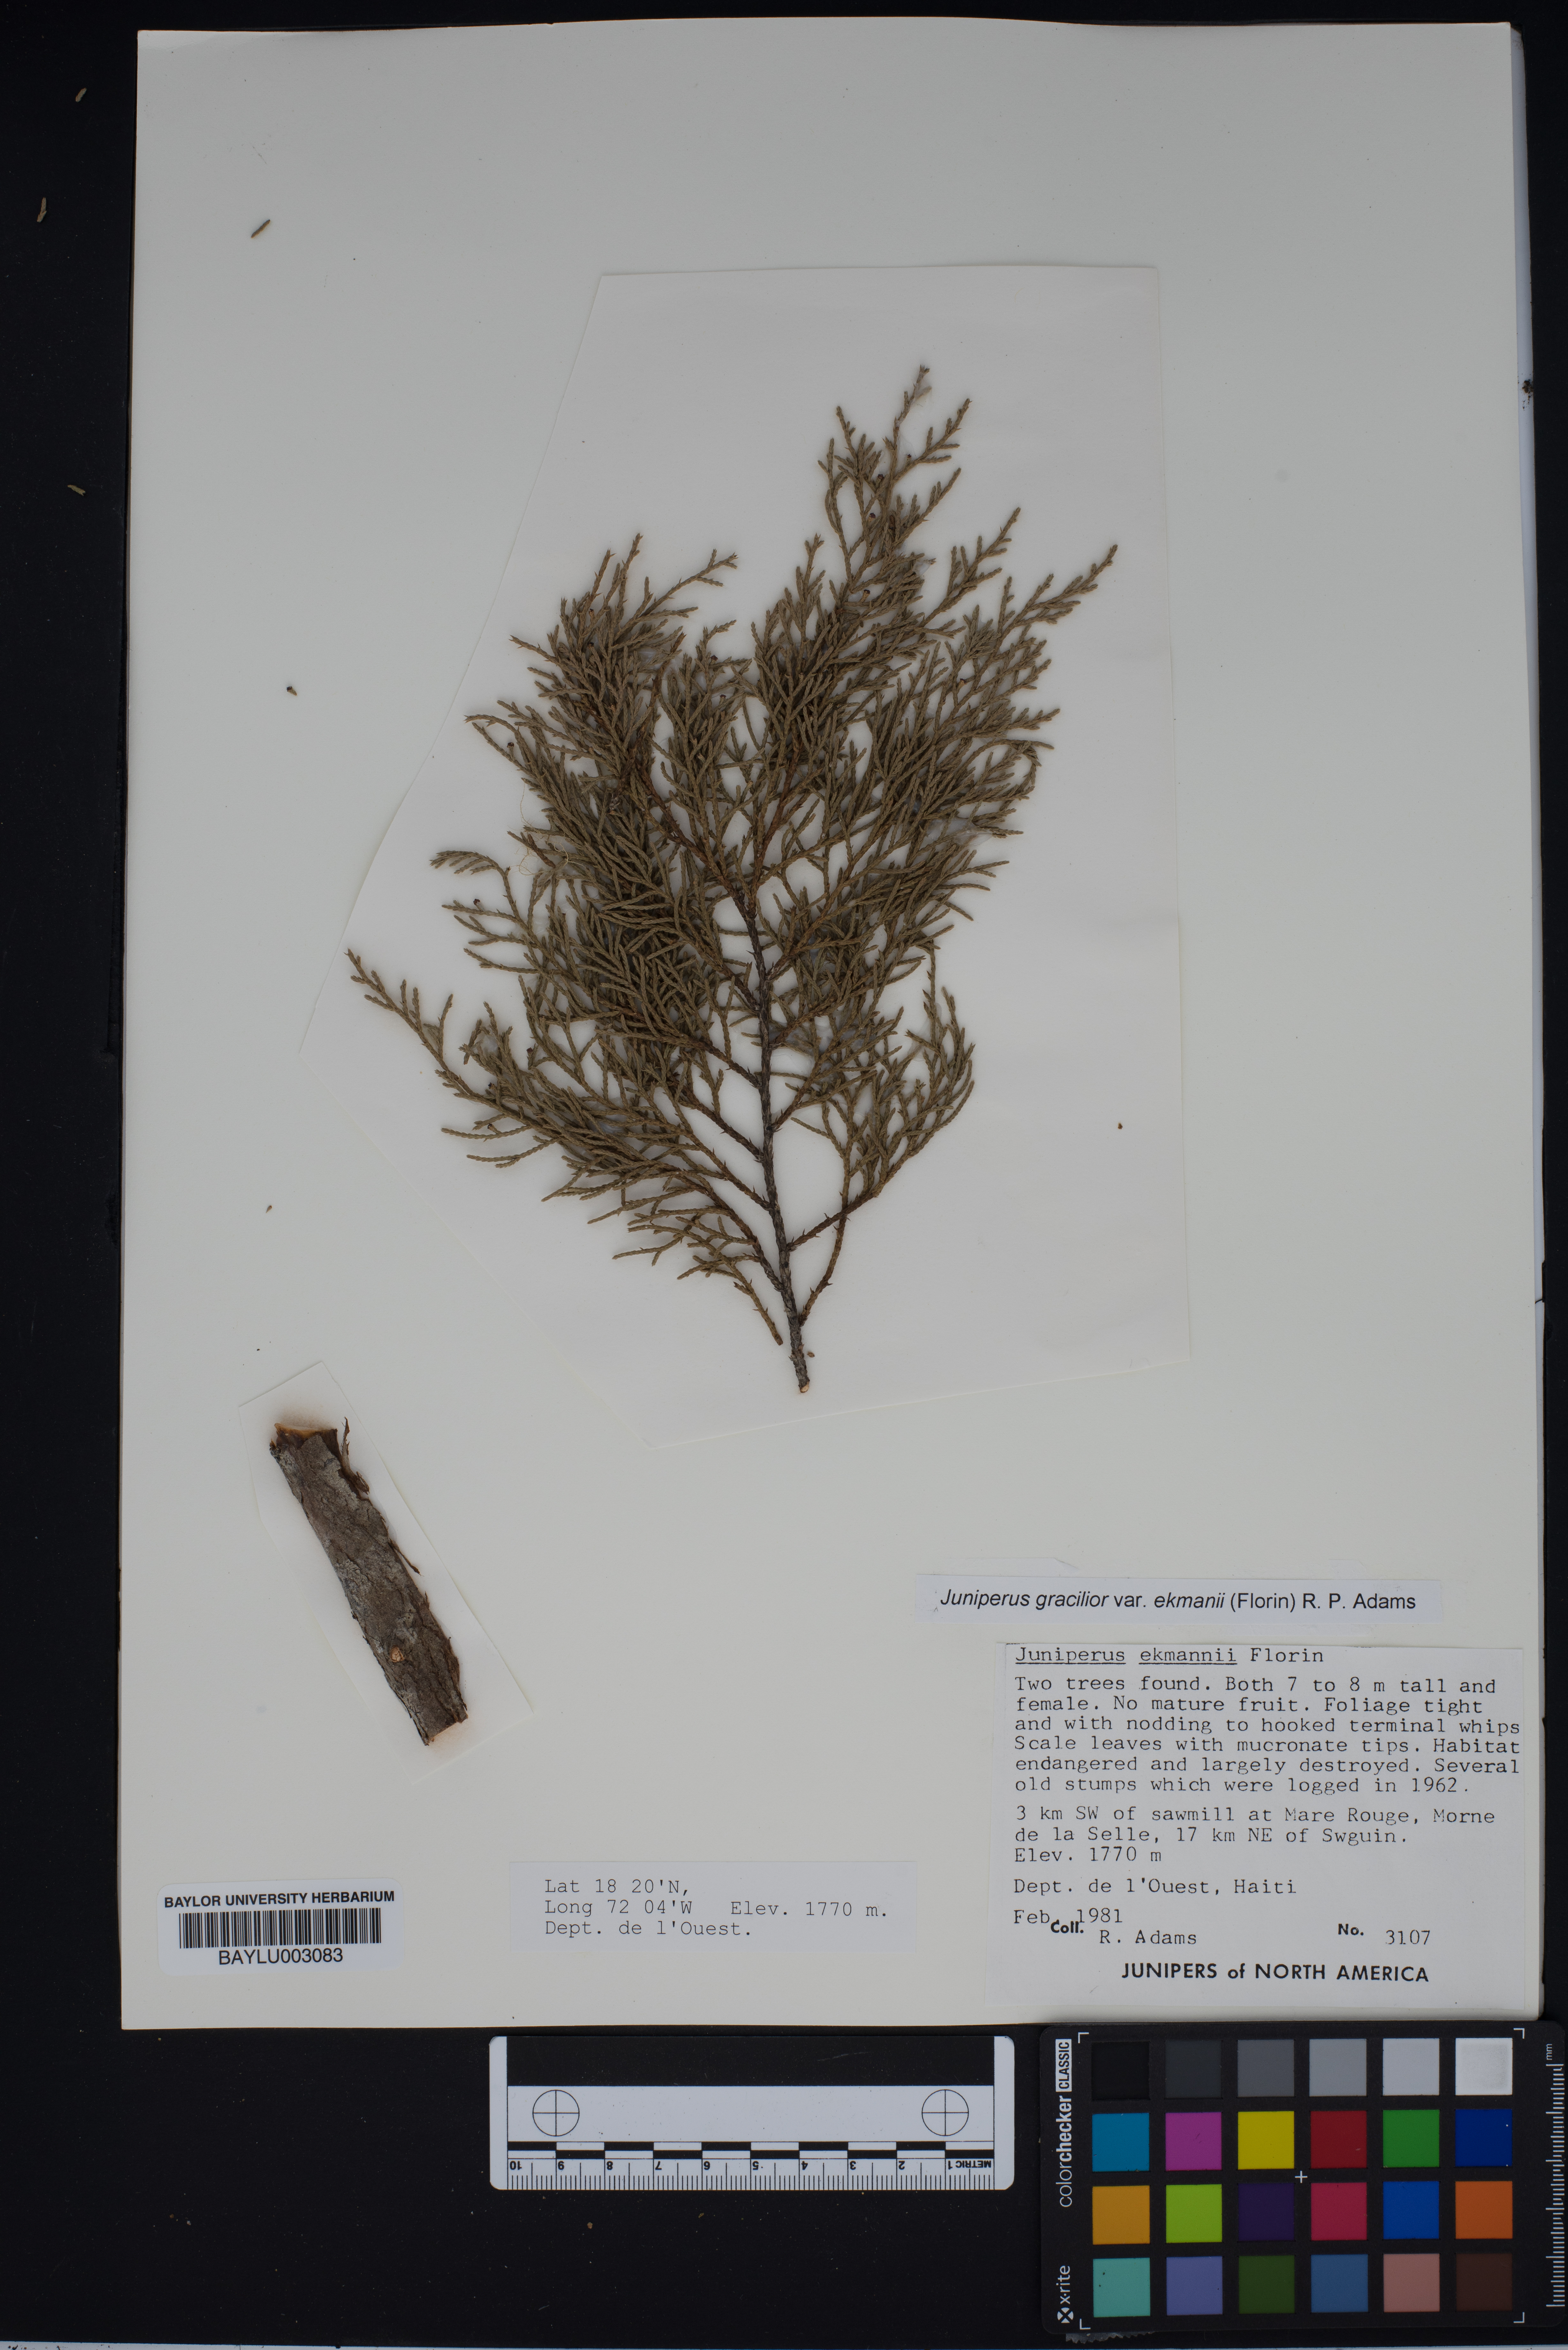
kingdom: Plantae
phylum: Tracheophyta
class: Pinopsida
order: Pinales
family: Cupressaceae
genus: Juniperus
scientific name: Juniperus gracilior
